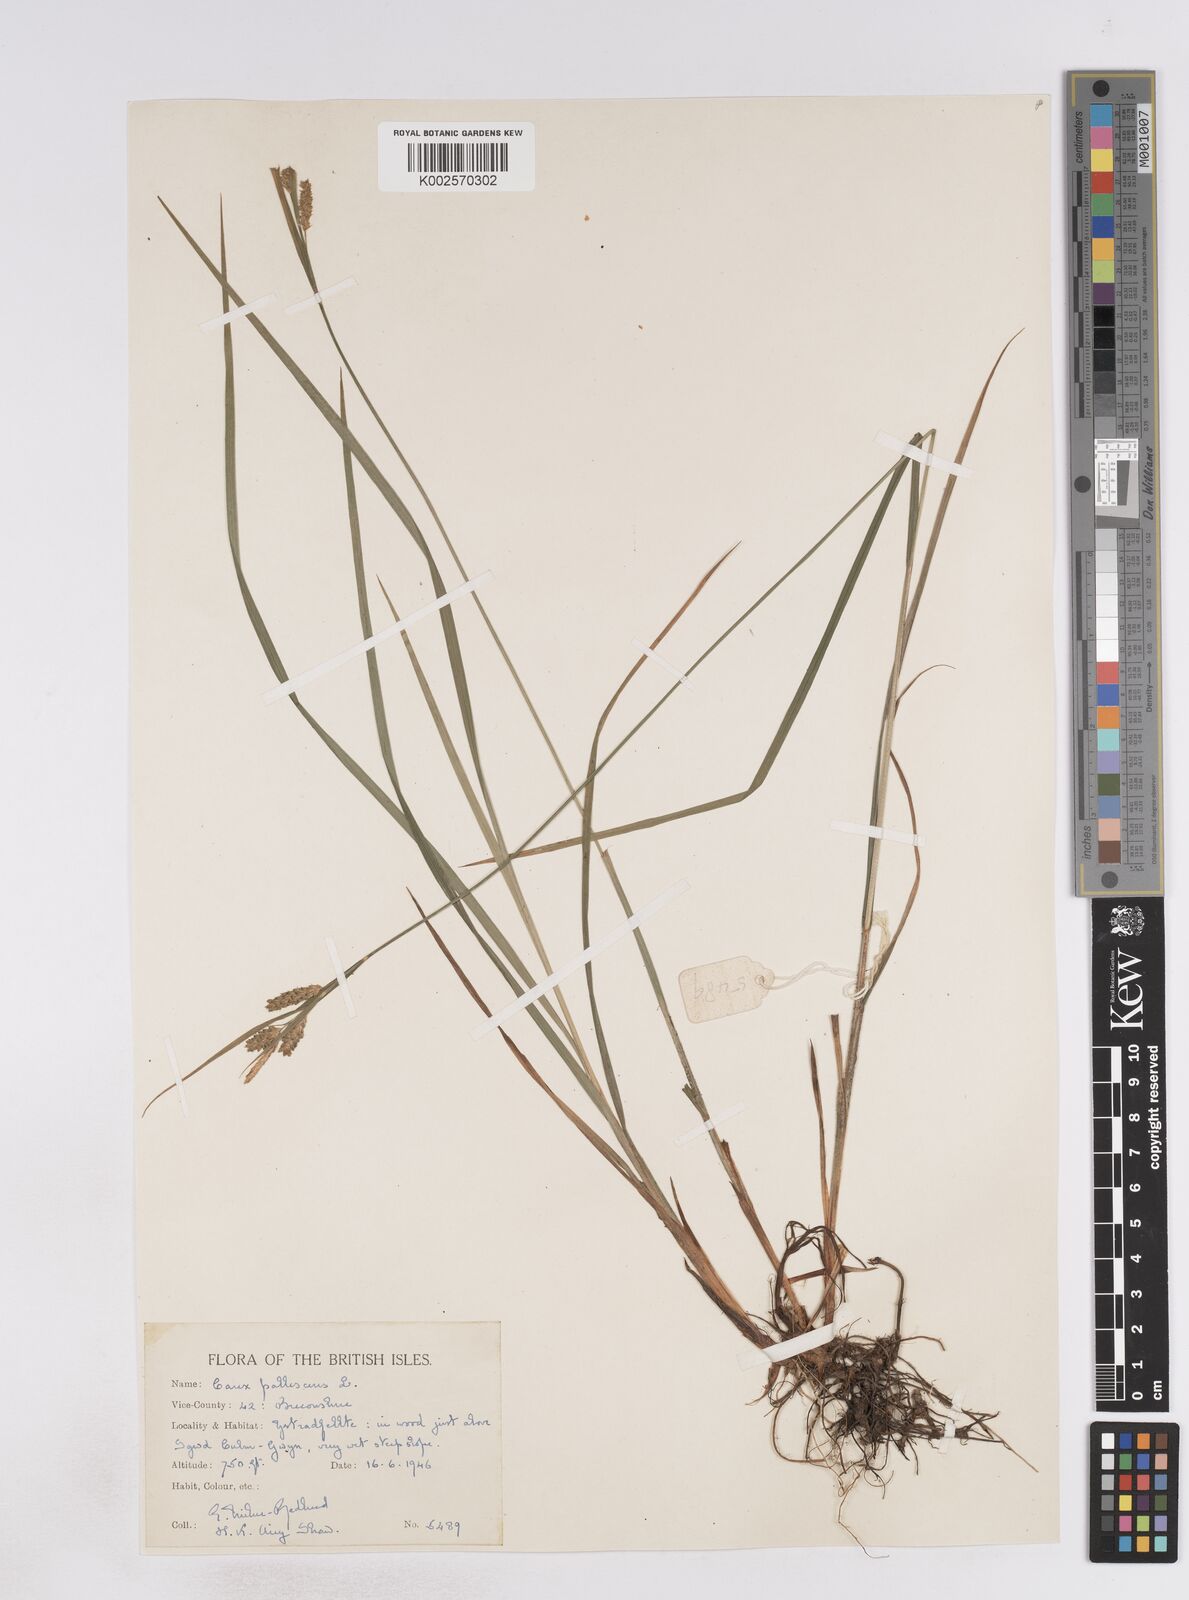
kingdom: Plantae
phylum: Tracheophyta
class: Liliopsida
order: Poales
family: Cyperaceae
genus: Carex
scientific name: Carex pallescens
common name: Pale sedge
